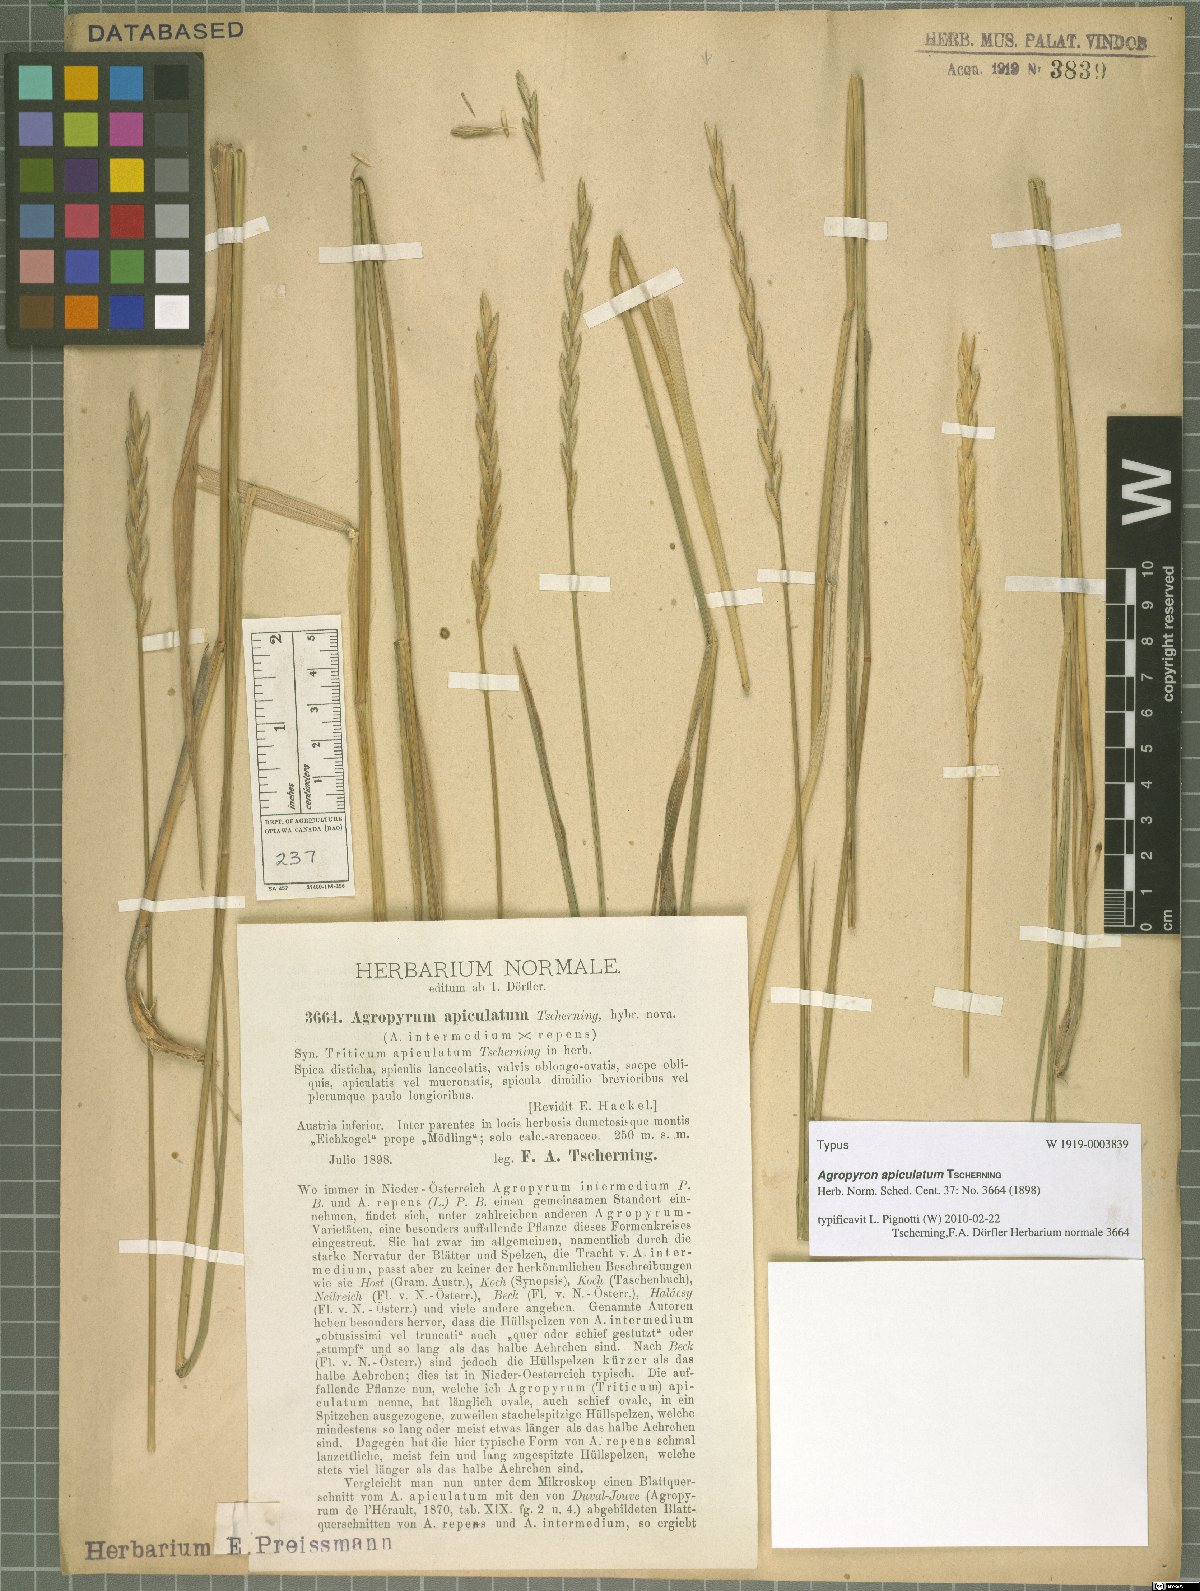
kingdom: Plantae
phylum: Tracheophyta
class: Liliopsida
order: Poales
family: Poaceae
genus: Elymus
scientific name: Elymus apiculatus
